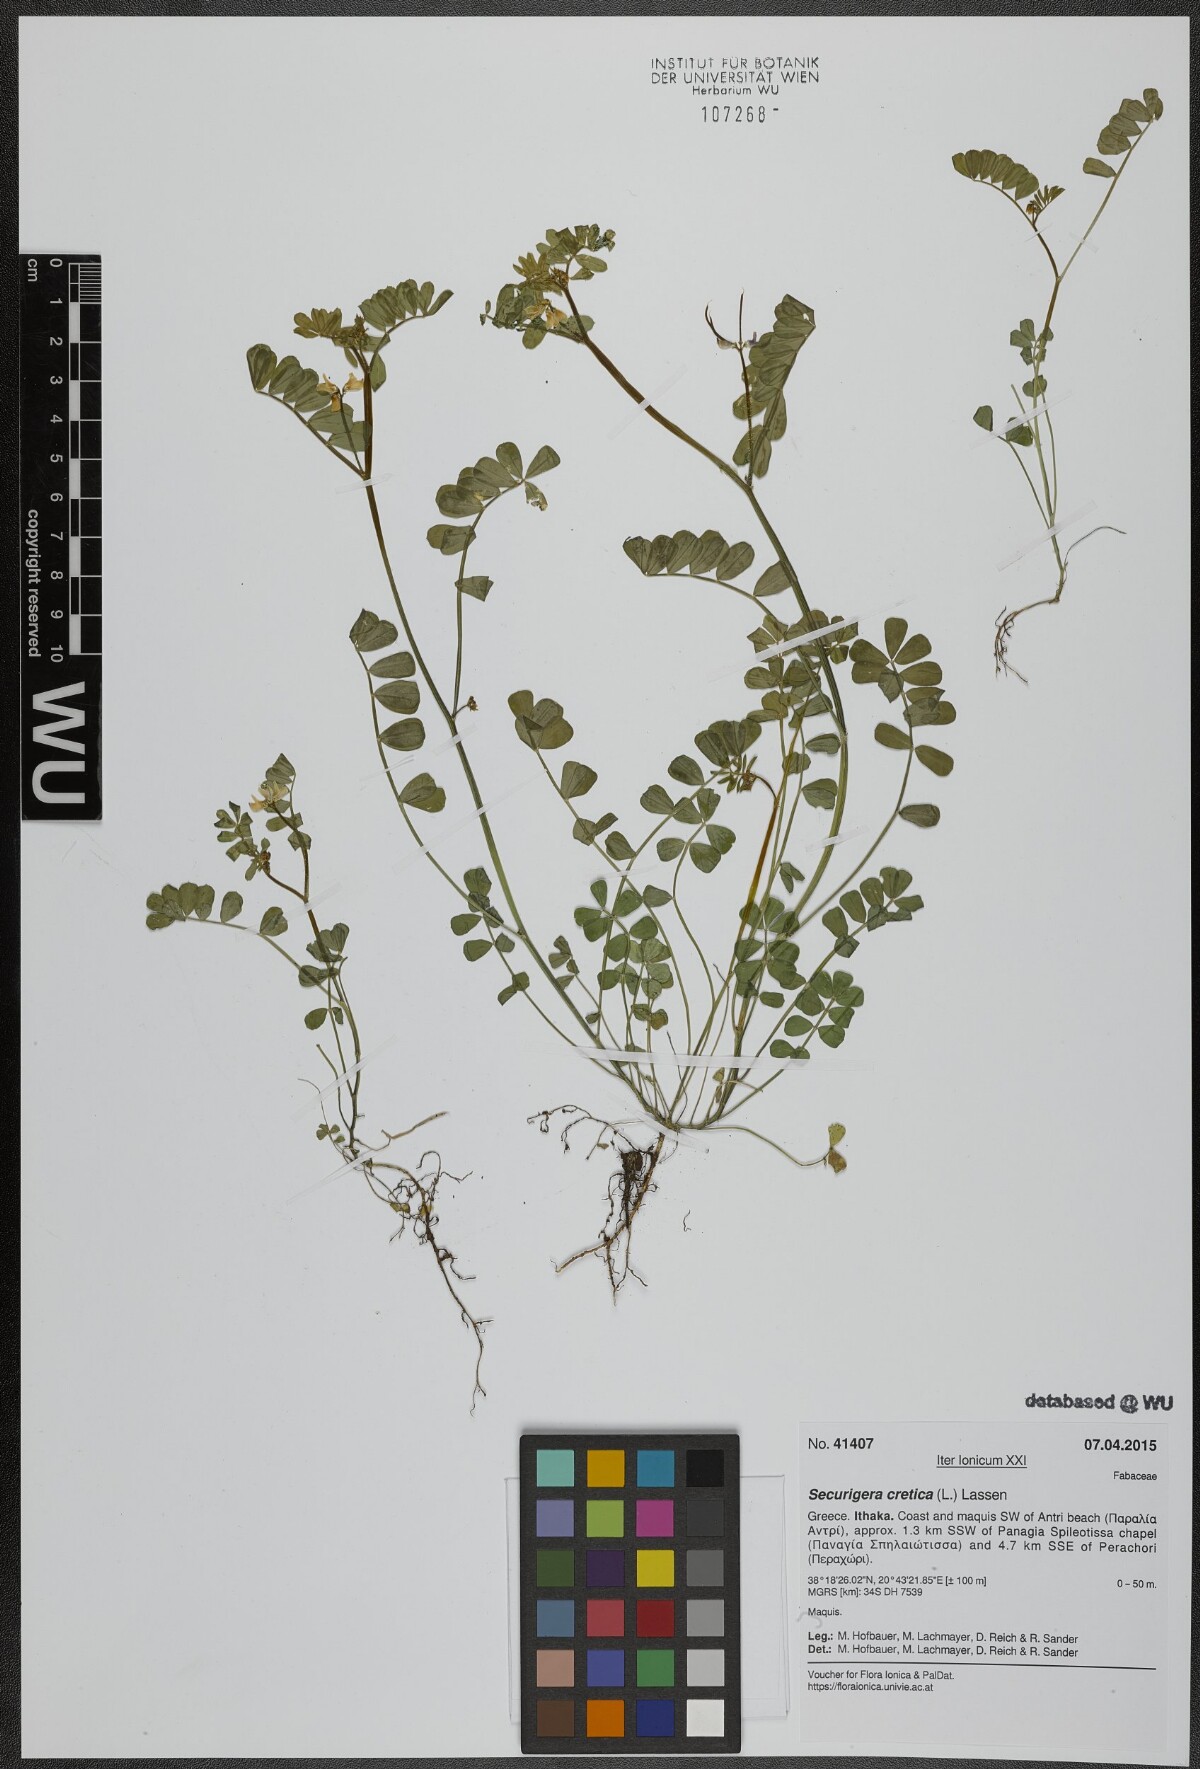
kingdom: Plantae
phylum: Tracheophyta
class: Magnoliopsida
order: Fabales
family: Fabaceae
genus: Coronilla
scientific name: Coronilla cretica
